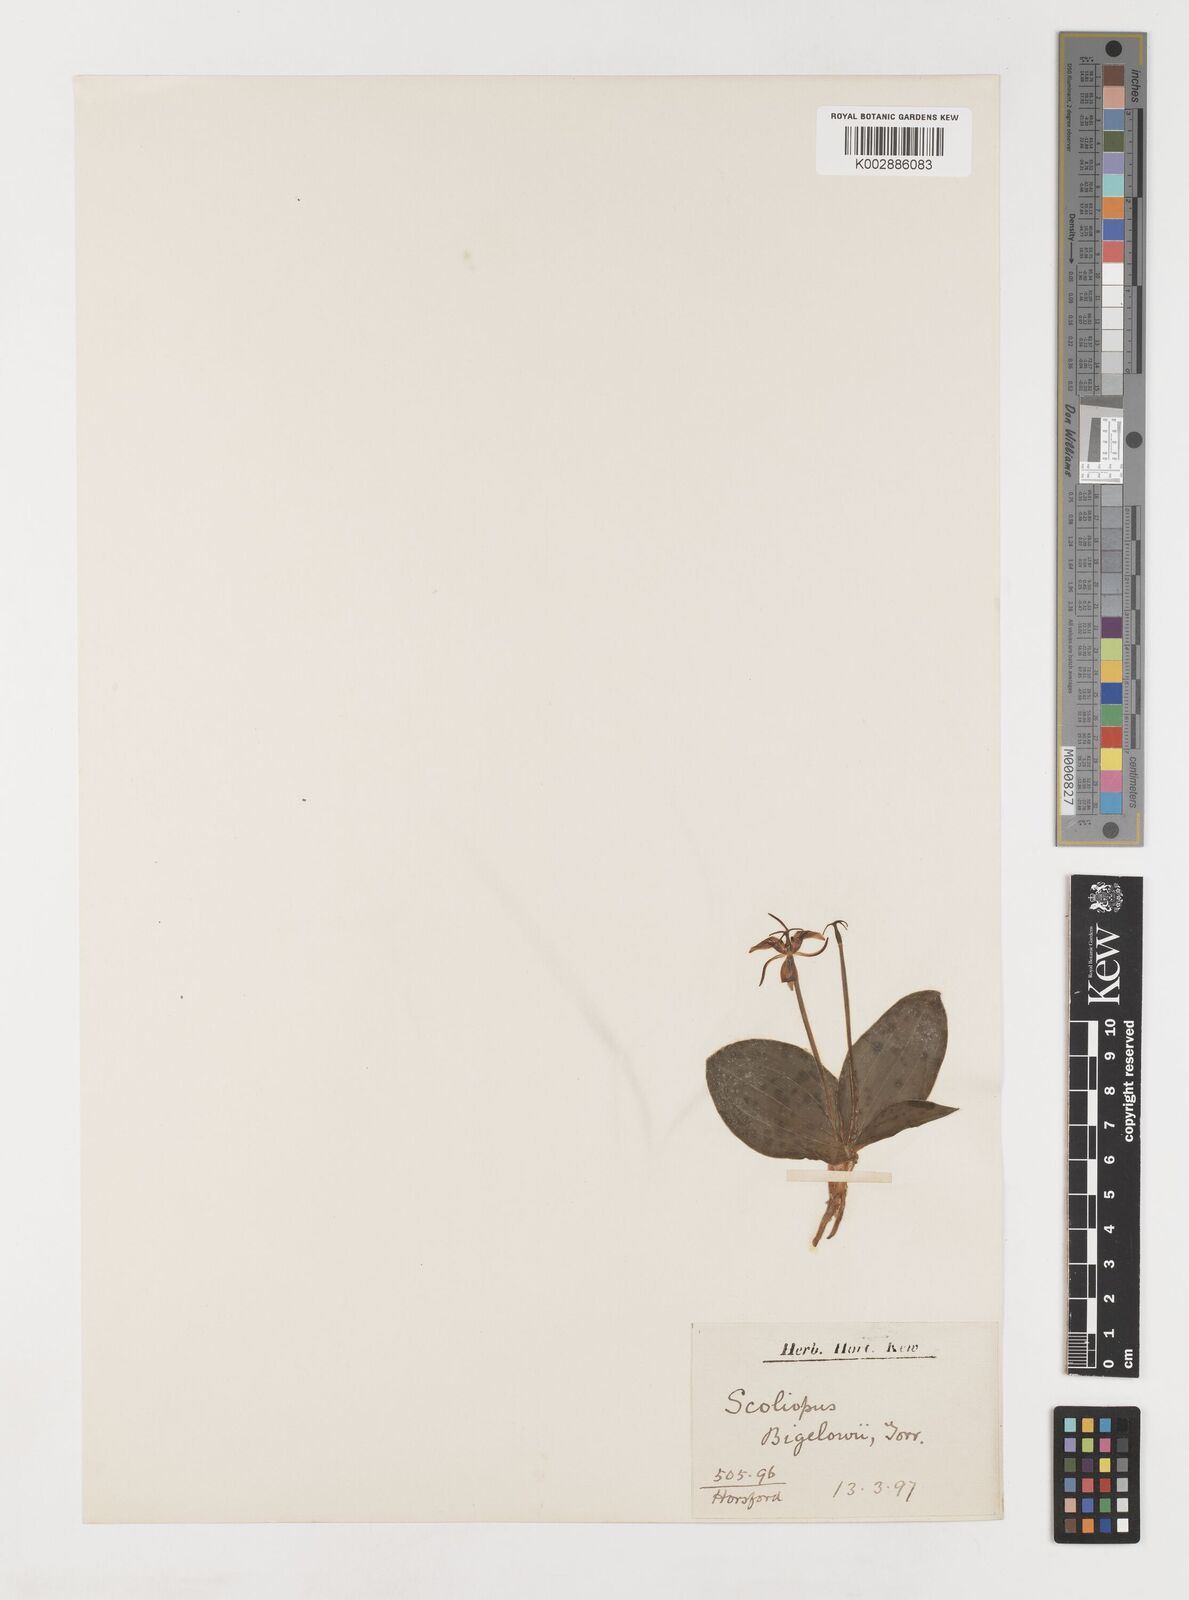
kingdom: Plantae
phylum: Tracheophyta
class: Liliopsida
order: Liliales
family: Liliaceae
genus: Scoliopus
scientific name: Scoliopus bigelovii
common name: Foetid adder's-tongue
